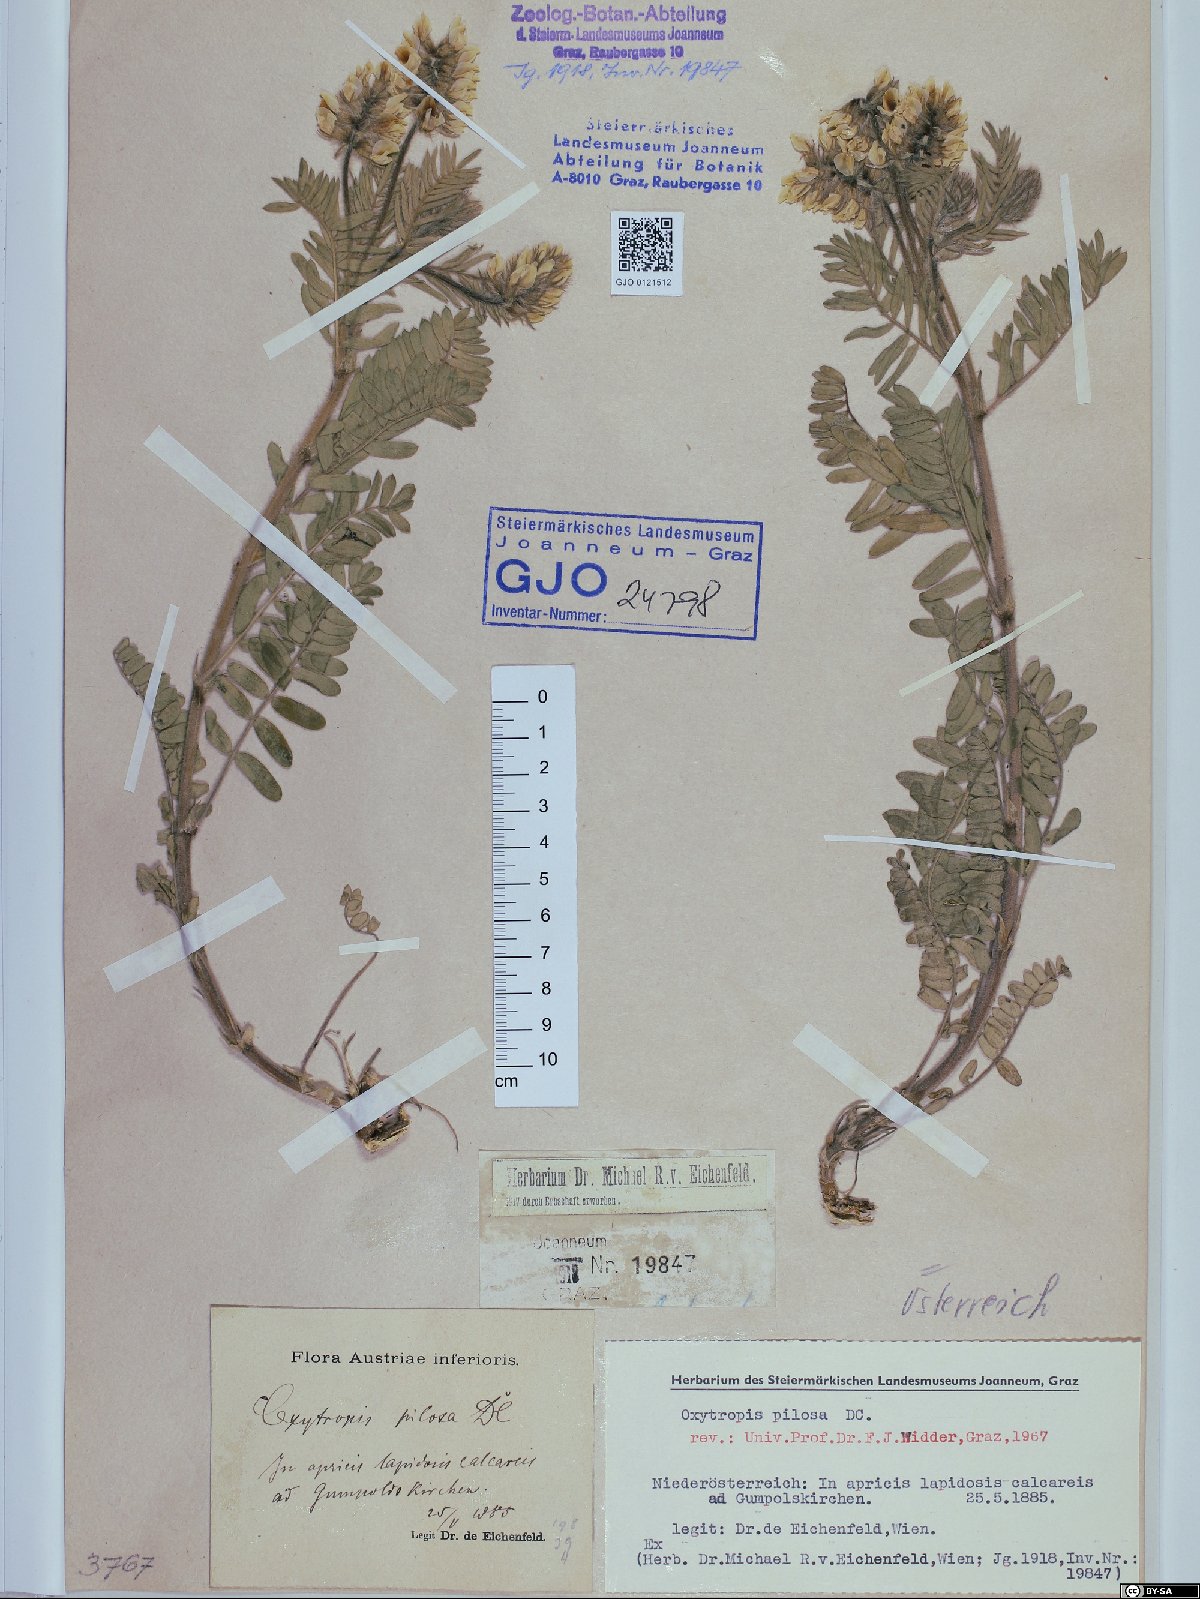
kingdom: Plantae
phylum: Tracheophyta
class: Magnoliopsida
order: Fabales
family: Fabaceae
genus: Oxytropis
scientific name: Oxytropis pilosa
